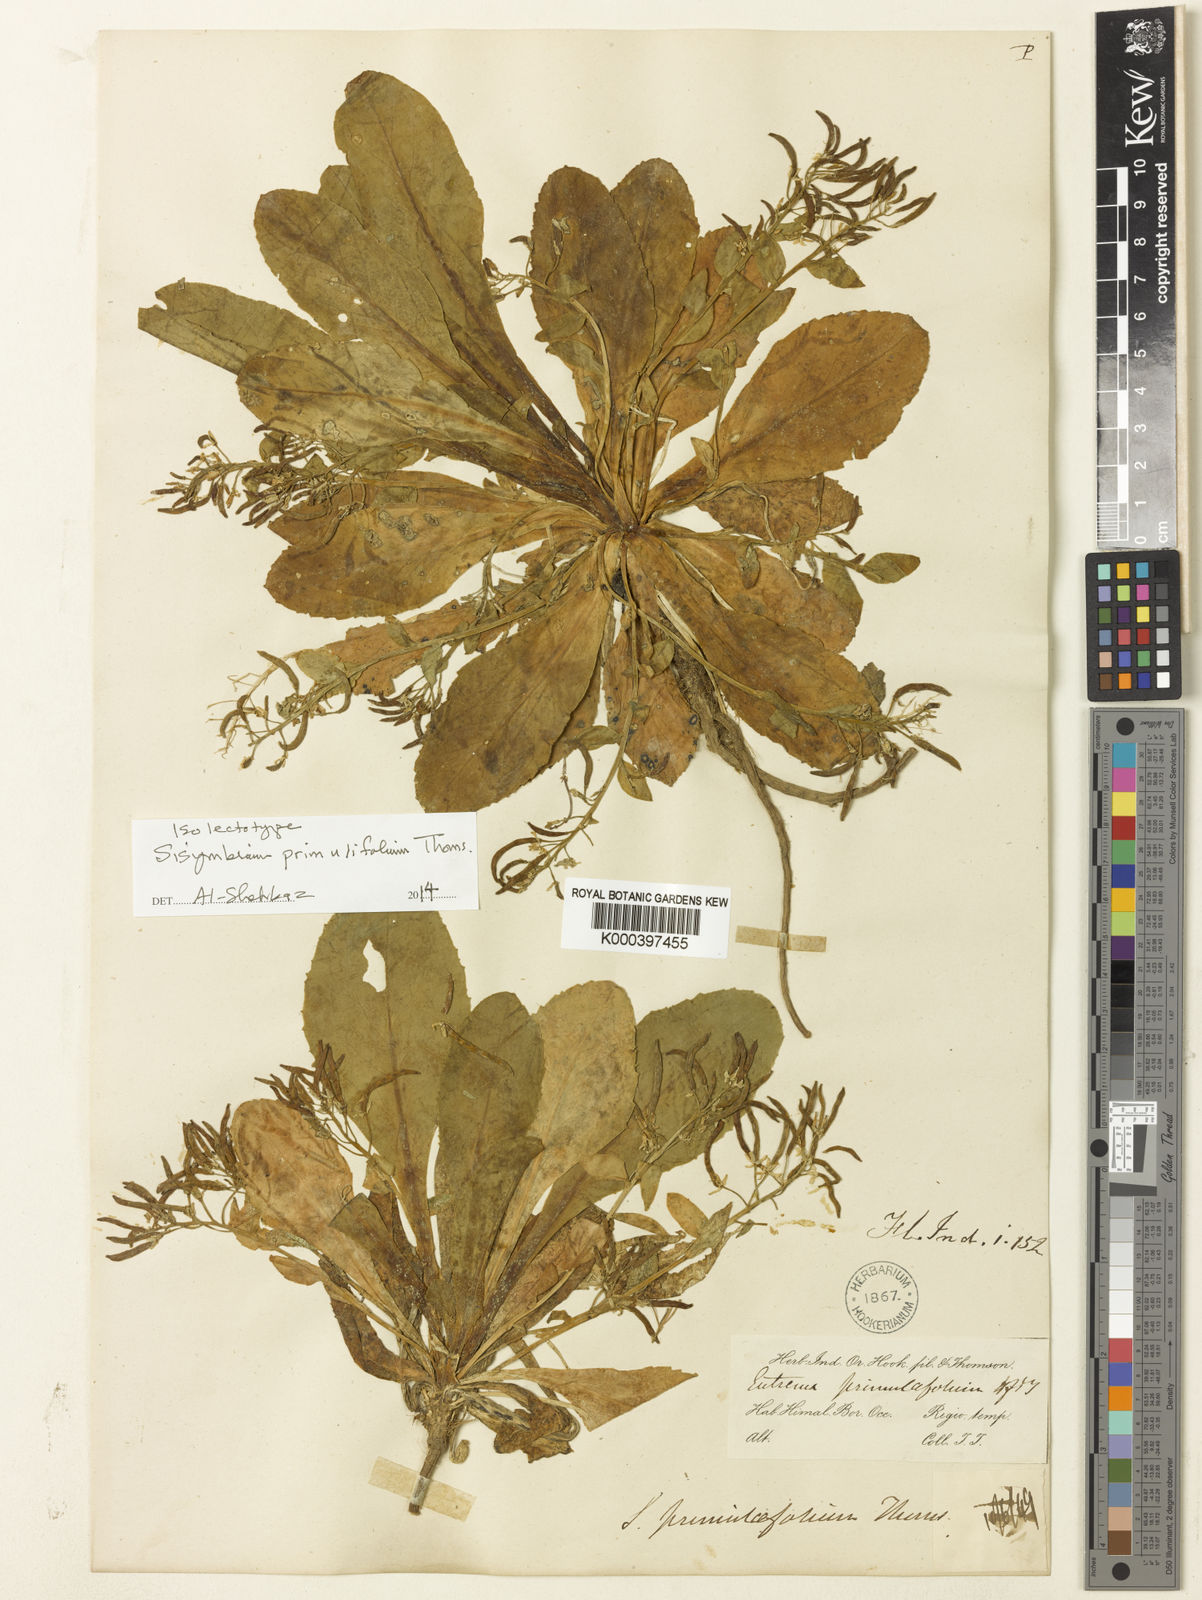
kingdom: Plantae
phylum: Tracheophyta
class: Magnoliopsida
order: Brassicales
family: Brassicaceae
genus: Arcyosperma
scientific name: Arcyosperma primulifolium
